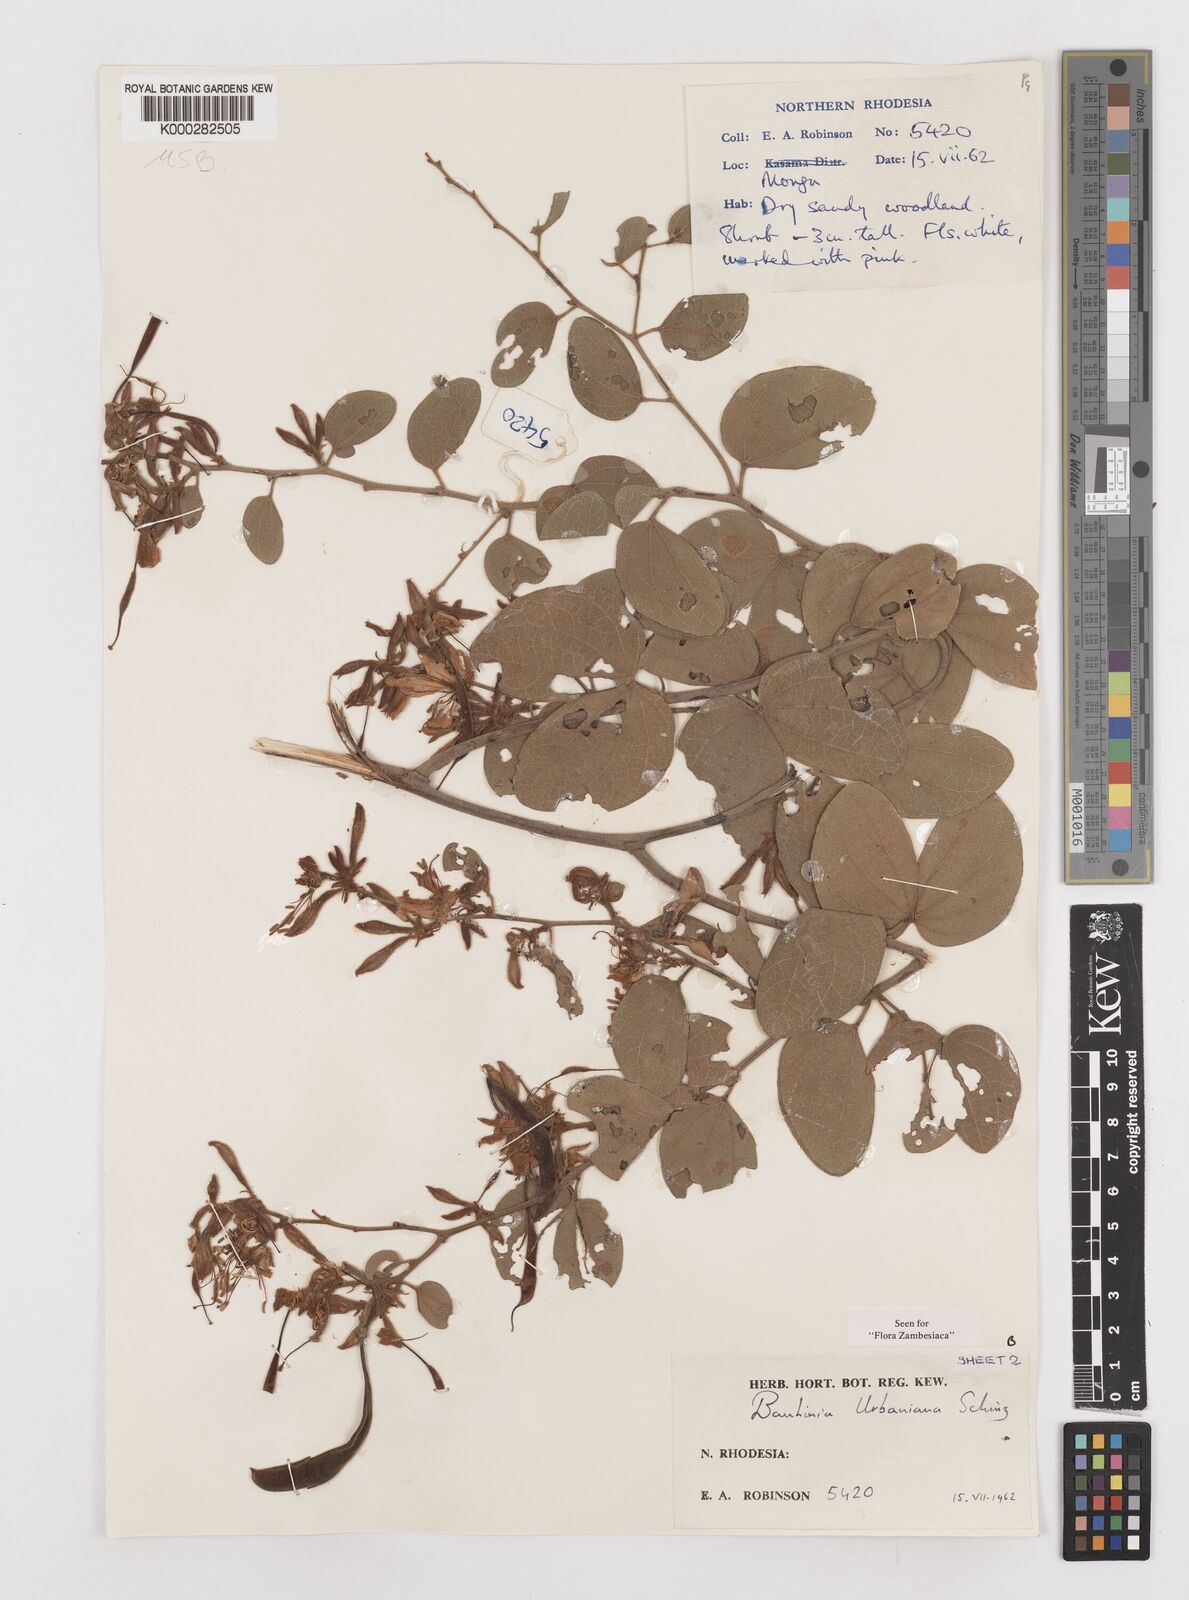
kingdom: Plantae
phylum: Tracheophyta
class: Magnoliopsida
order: Fabales
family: Fabaceae
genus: Bauhinia
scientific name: Bauhinia urbaniana
